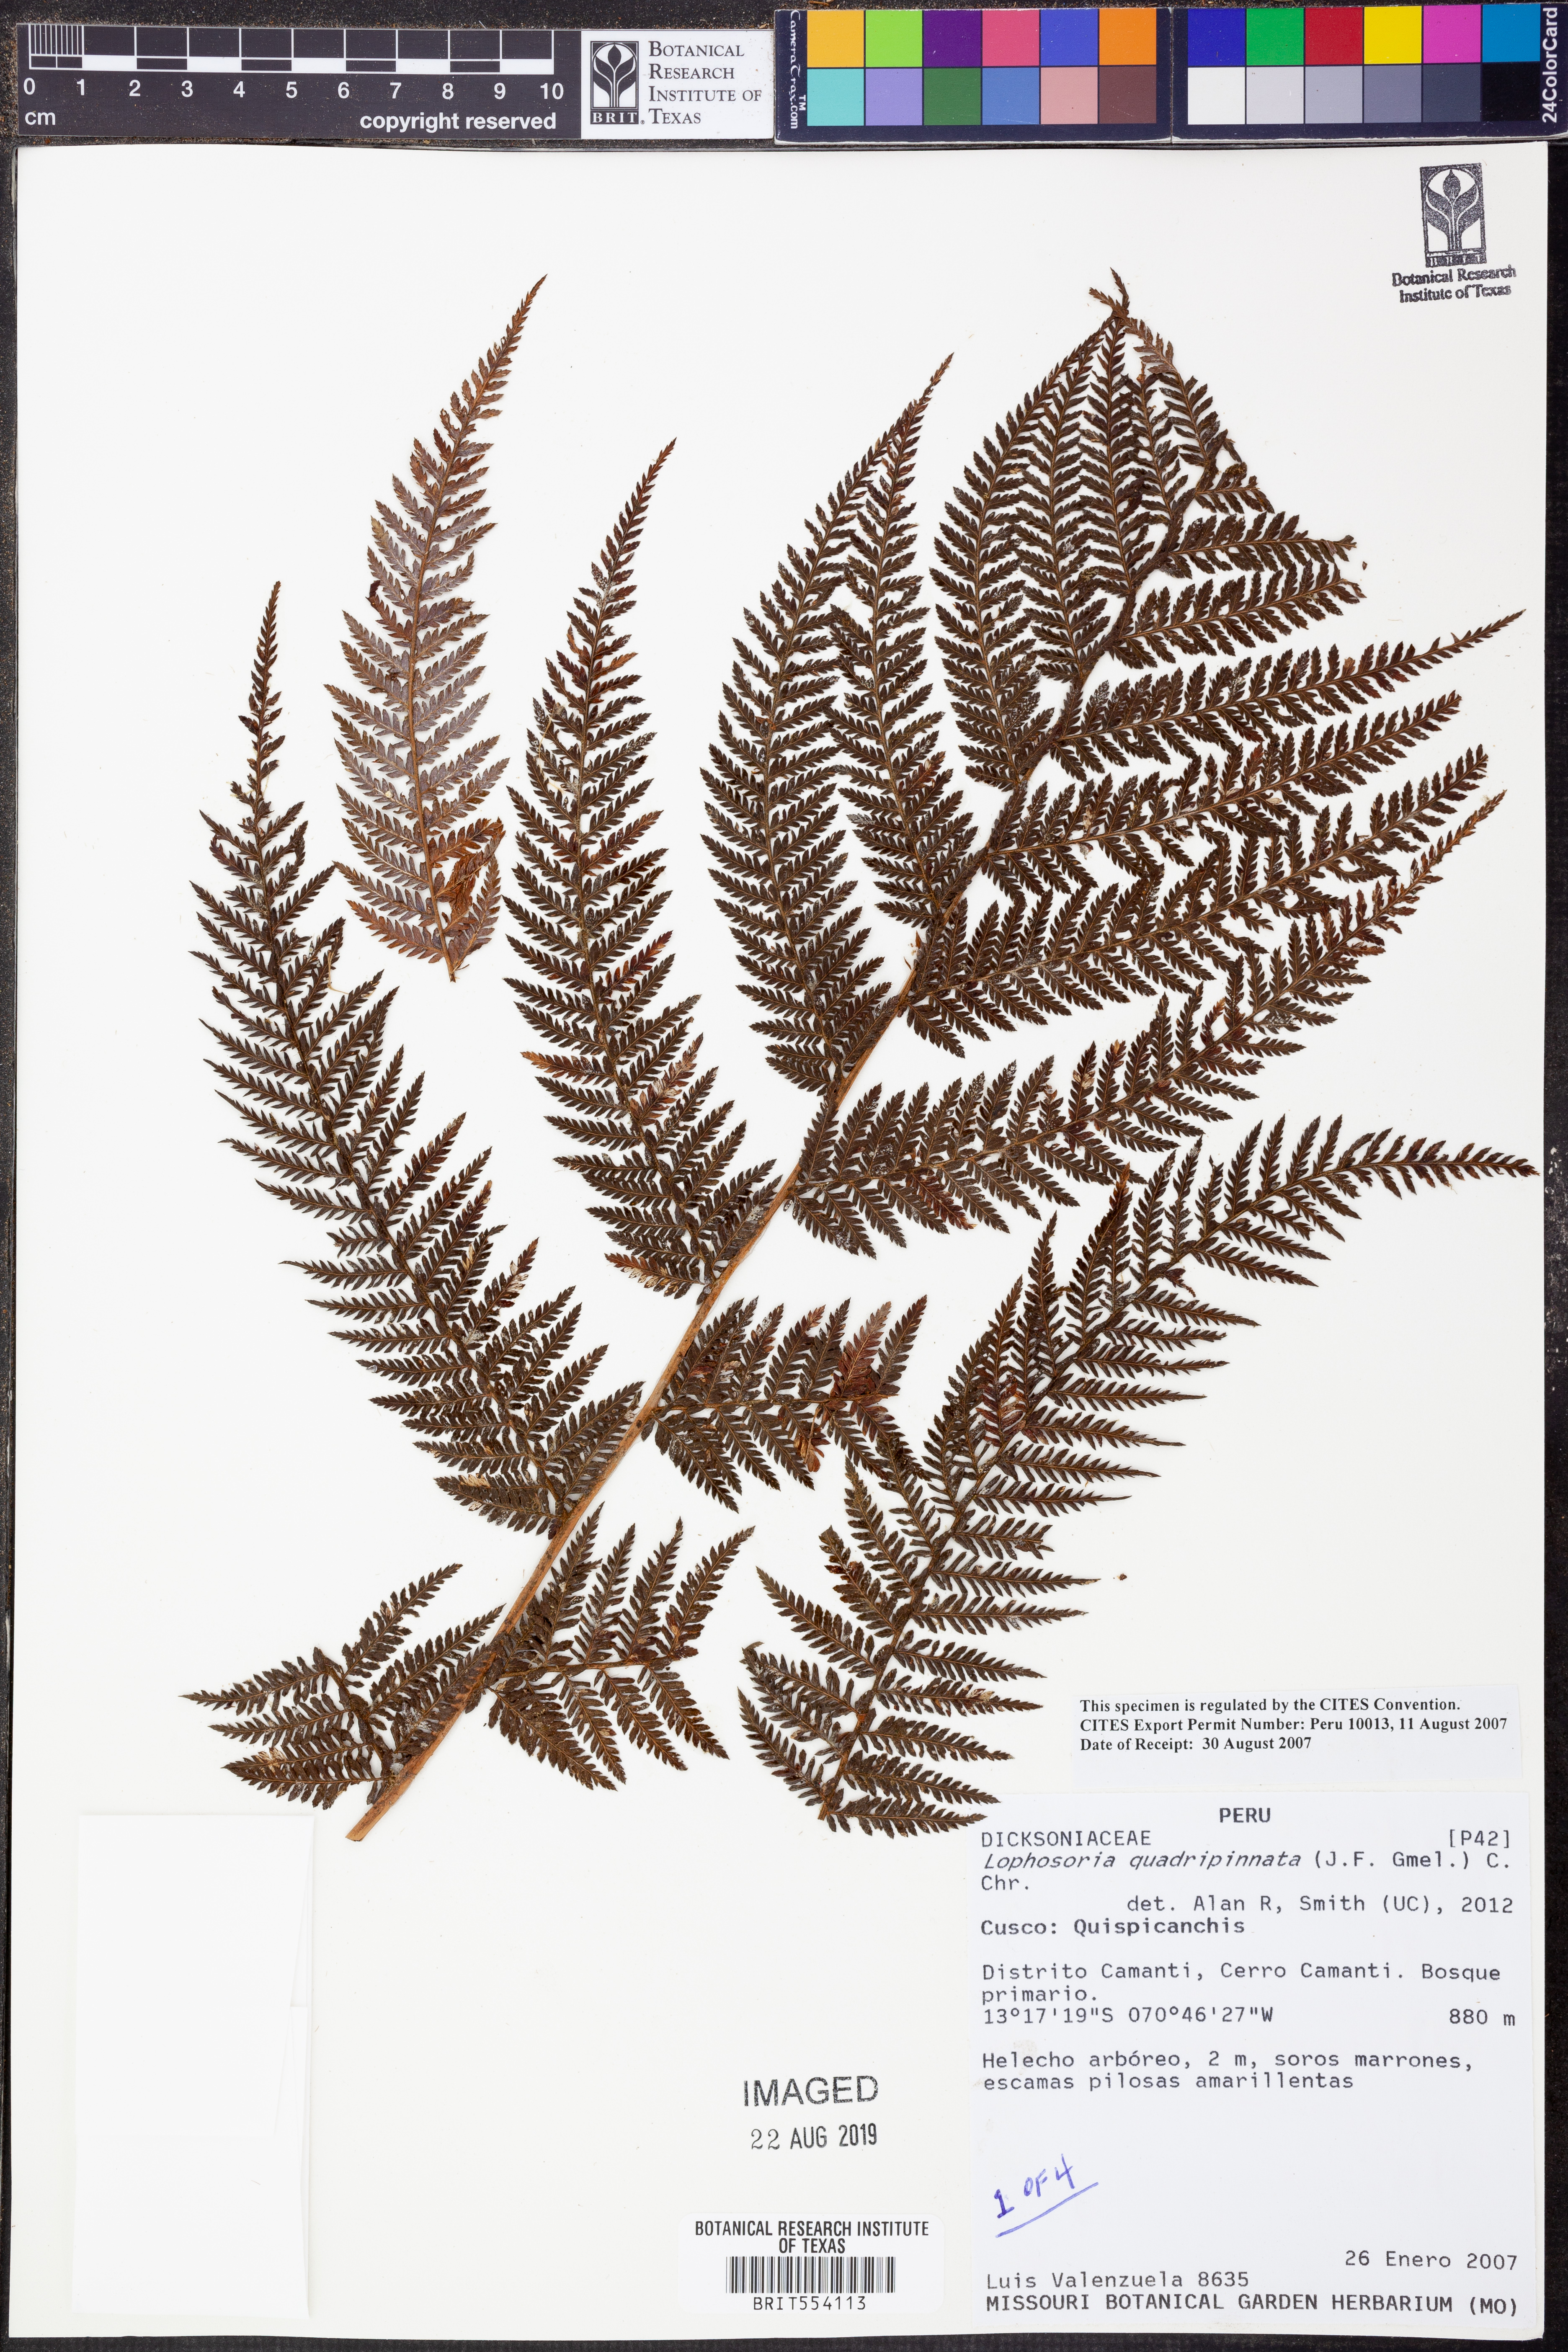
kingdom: Plantae
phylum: Tracheophyta
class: Polypodiopsida
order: Cyatheales
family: Dicksoniaceae
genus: Lophosoria
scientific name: Lophosoria quadripinnata
